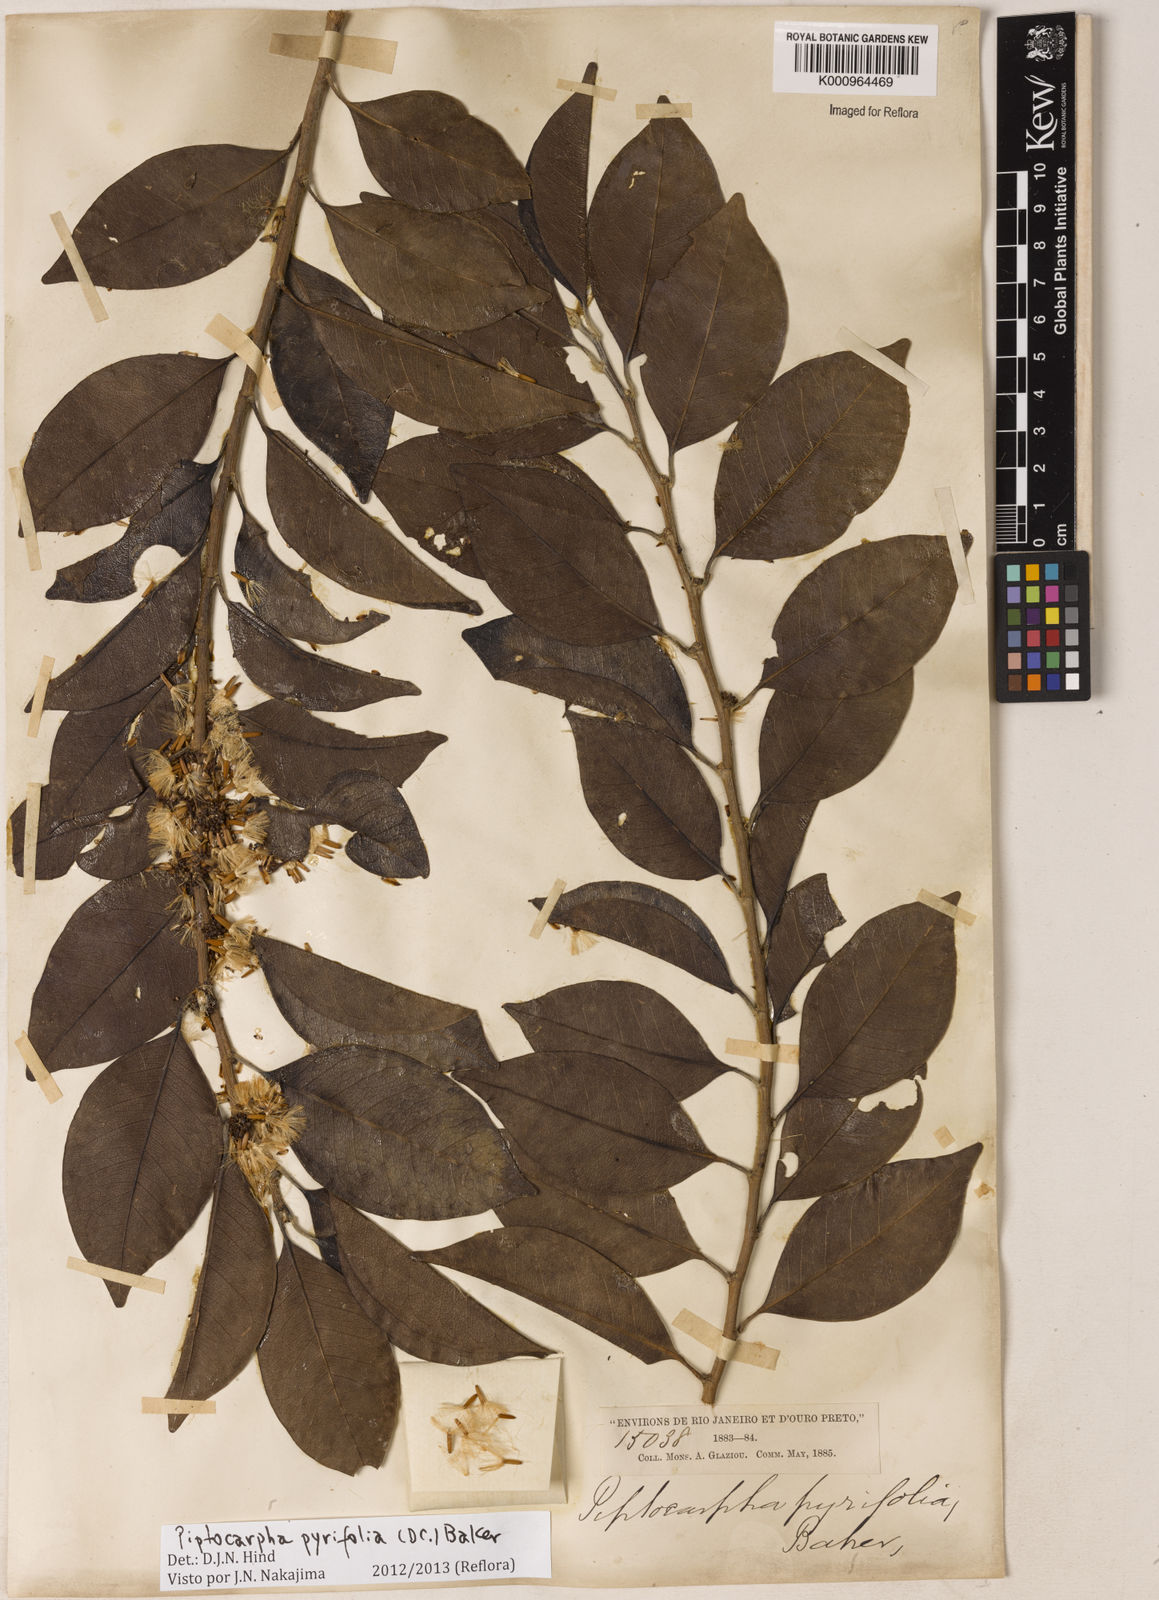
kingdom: Plantae
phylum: Tracheophyta
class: Magnoliopsida
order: Asterales
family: Asteraceae
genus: Piptocarpha
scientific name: Piptocarpha pyrifolia
